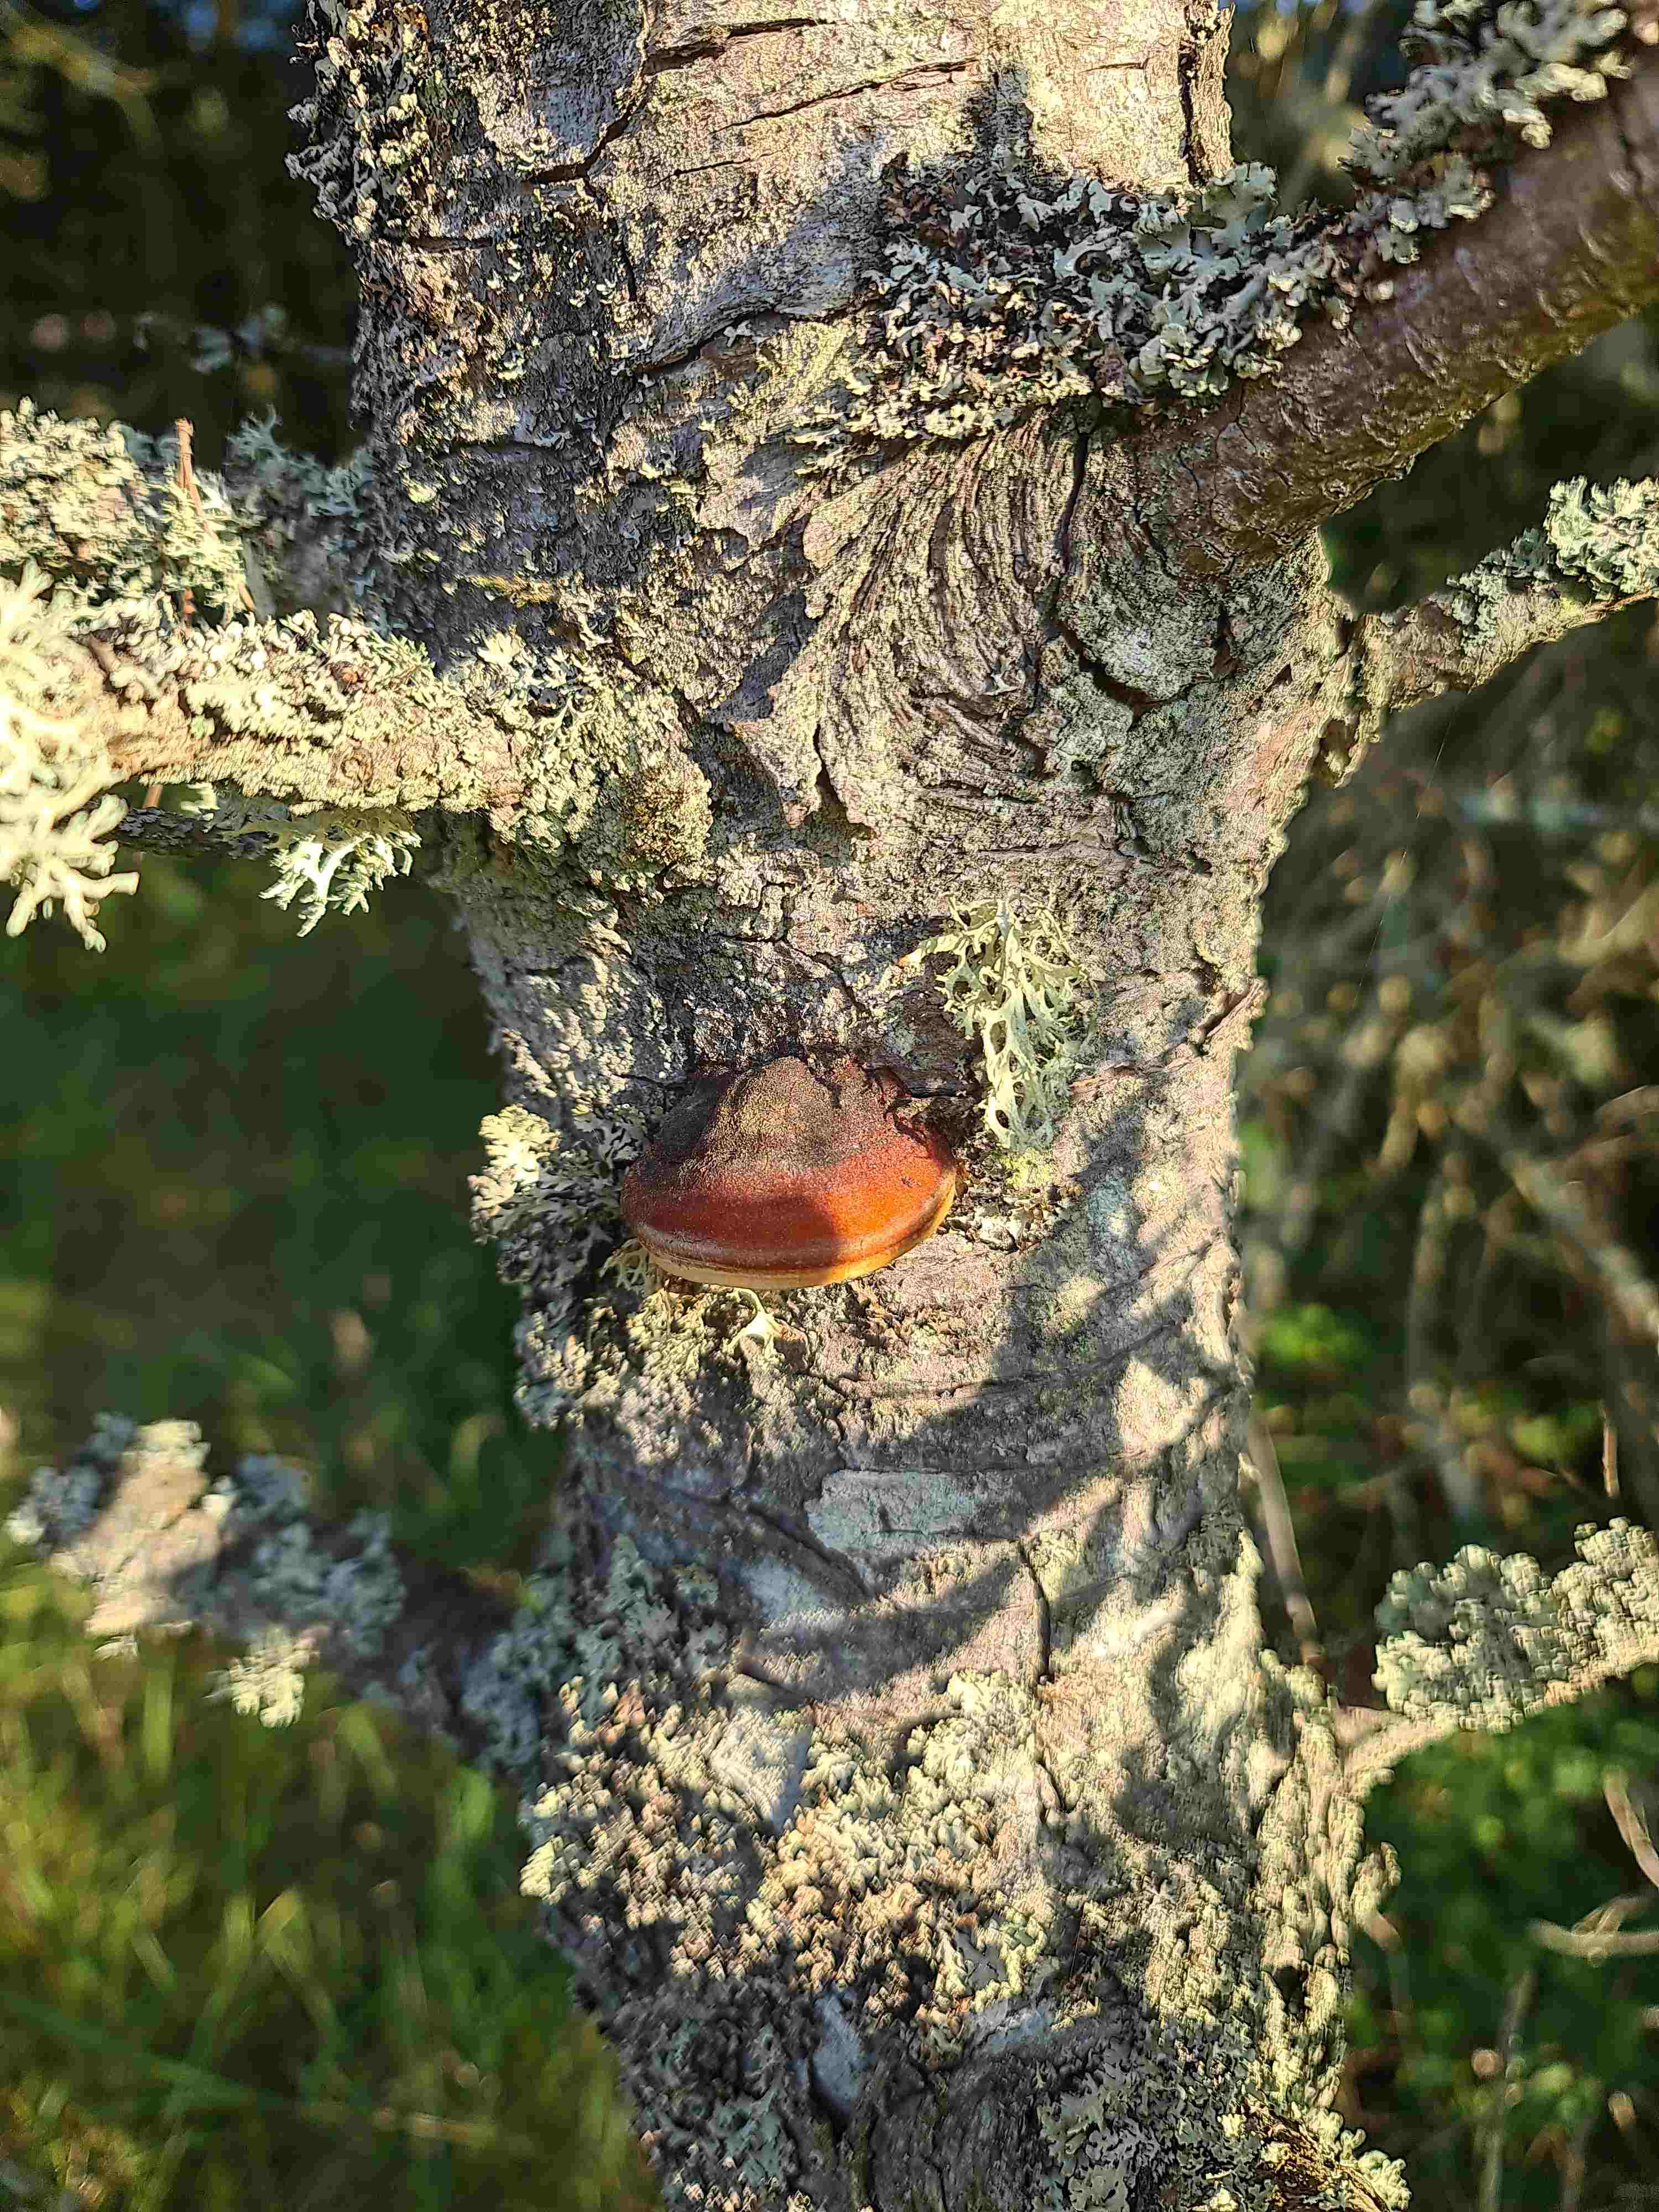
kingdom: Fungi
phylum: Basidiomycota
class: Agaricomycetes
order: Polyporales
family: Fomitopsidaceae
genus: Fomitopsis
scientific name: Fomitopsis pinicola
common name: randbæltet hovporesvamp
